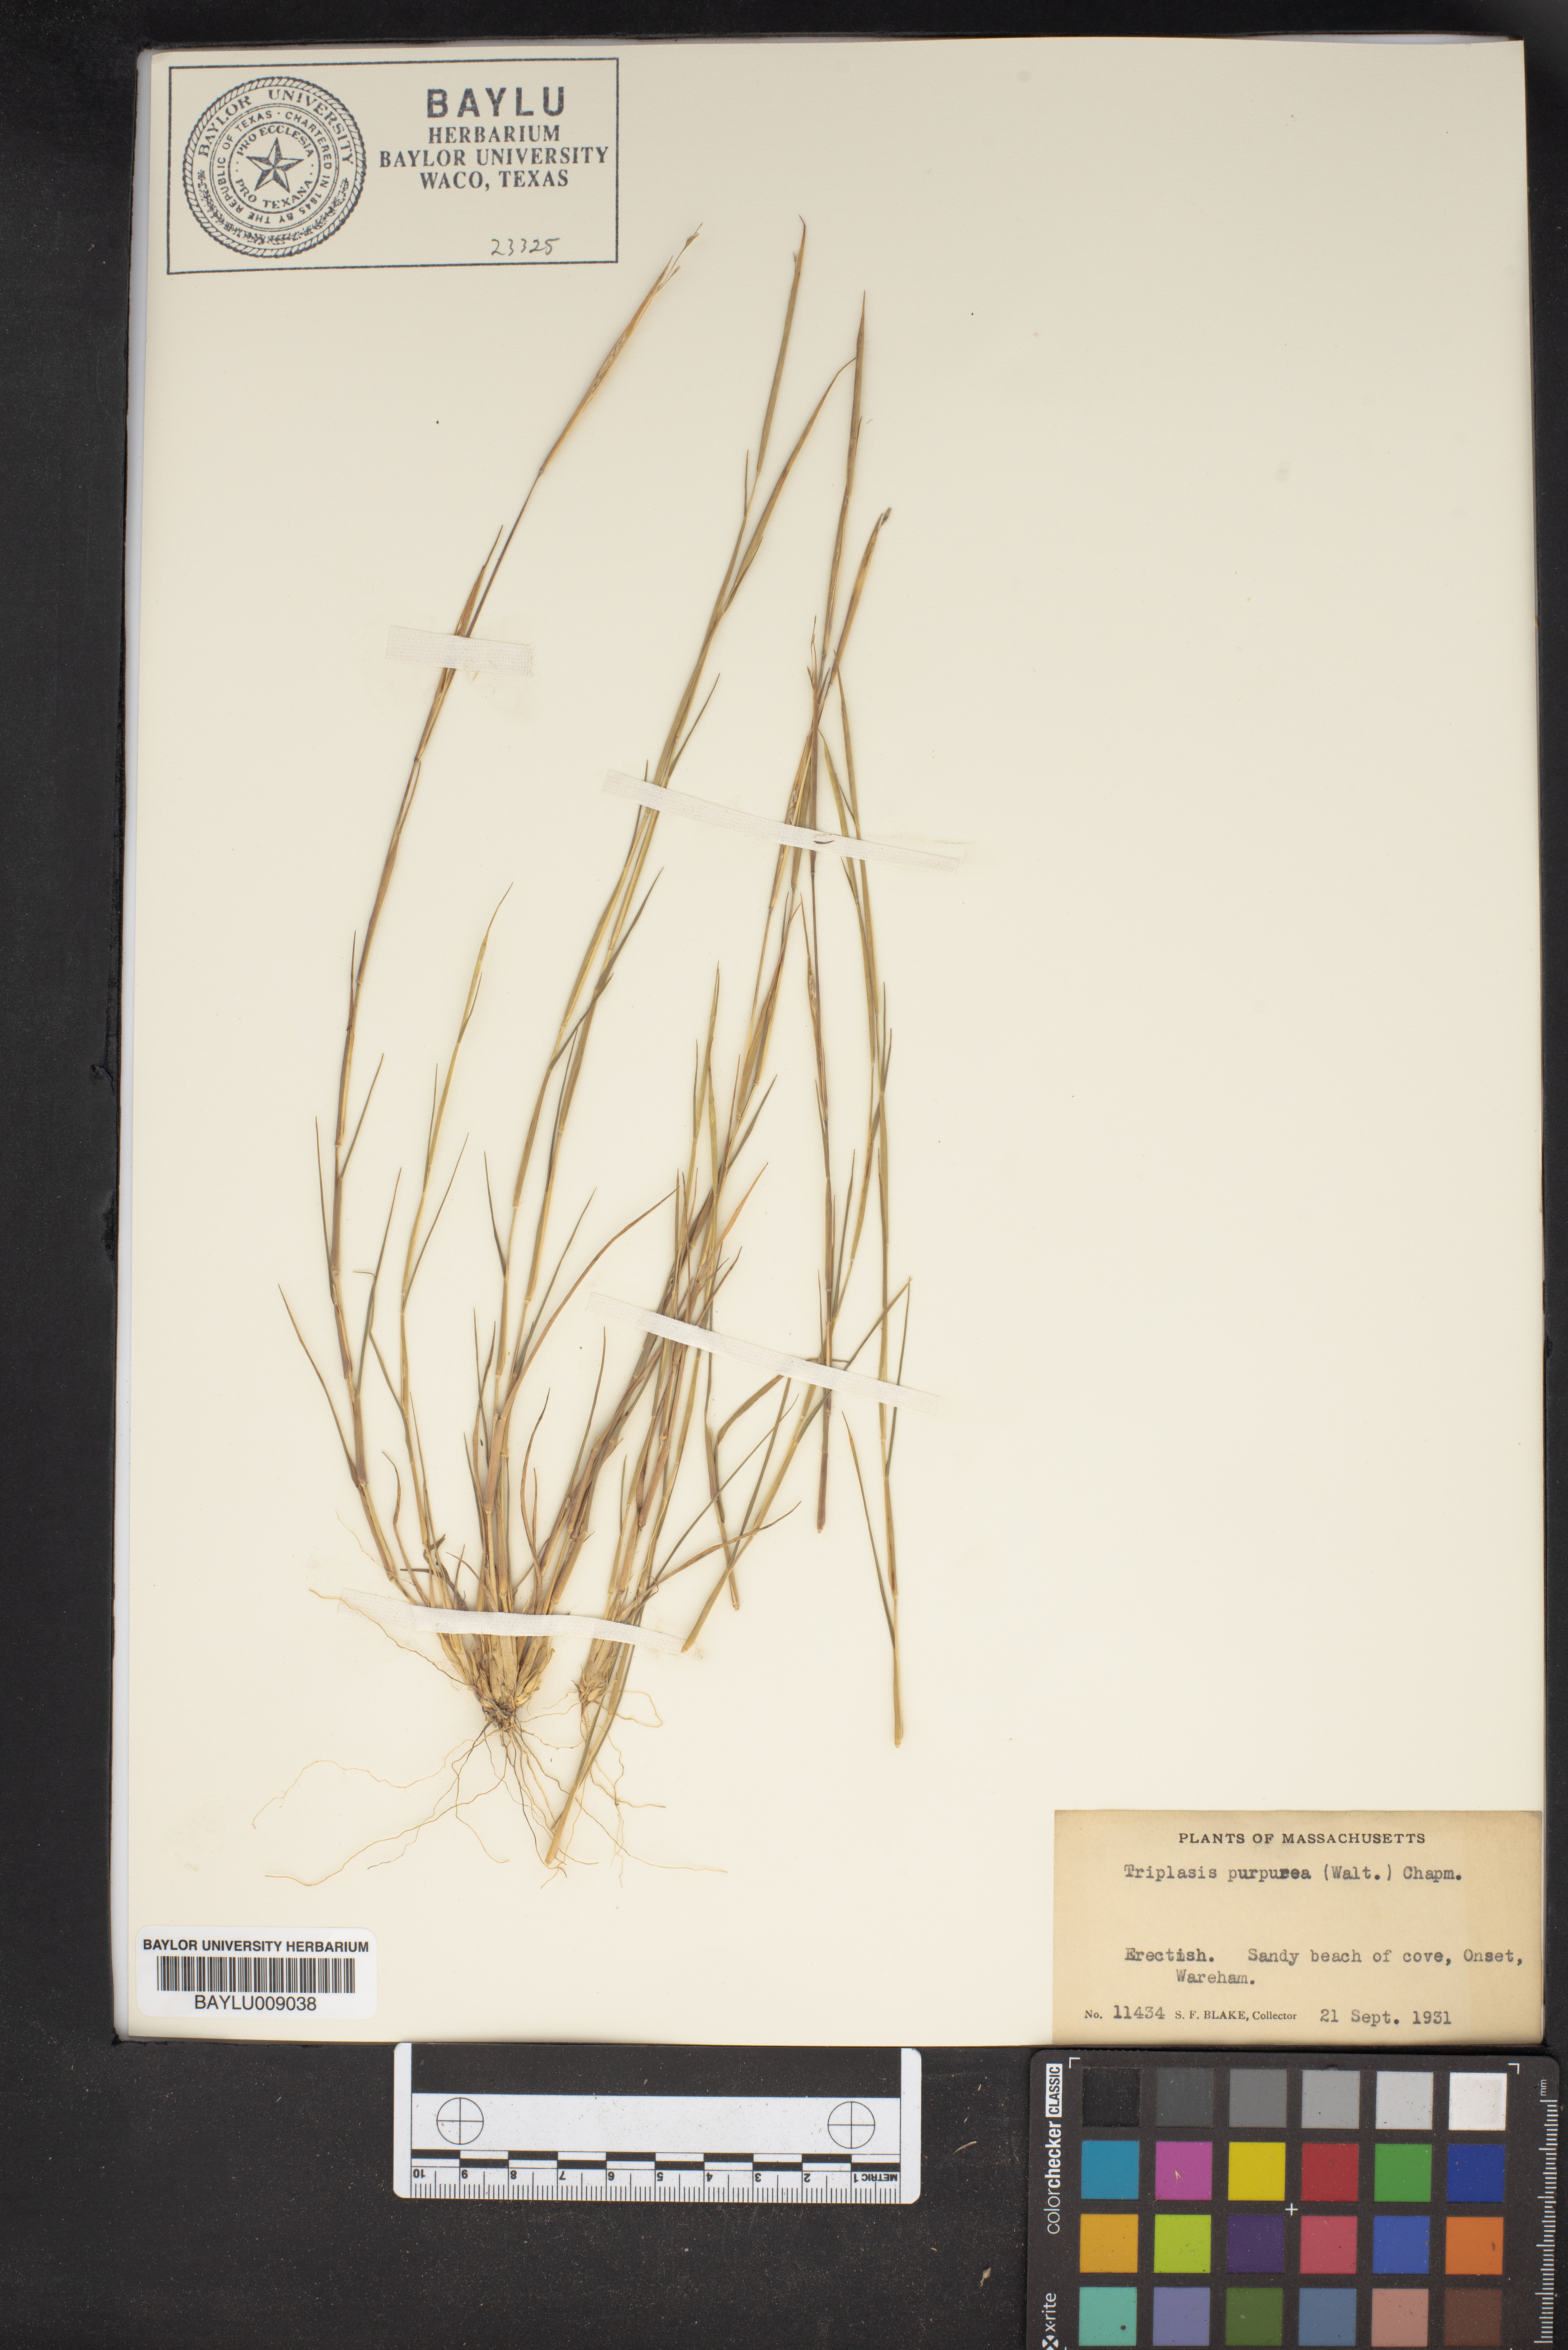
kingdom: Plantae
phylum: Tracheophyta
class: Liliopsida
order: Poales
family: Poaceae
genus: Triplasis
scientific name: Triplasis purpurea
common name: Purple sand grass
